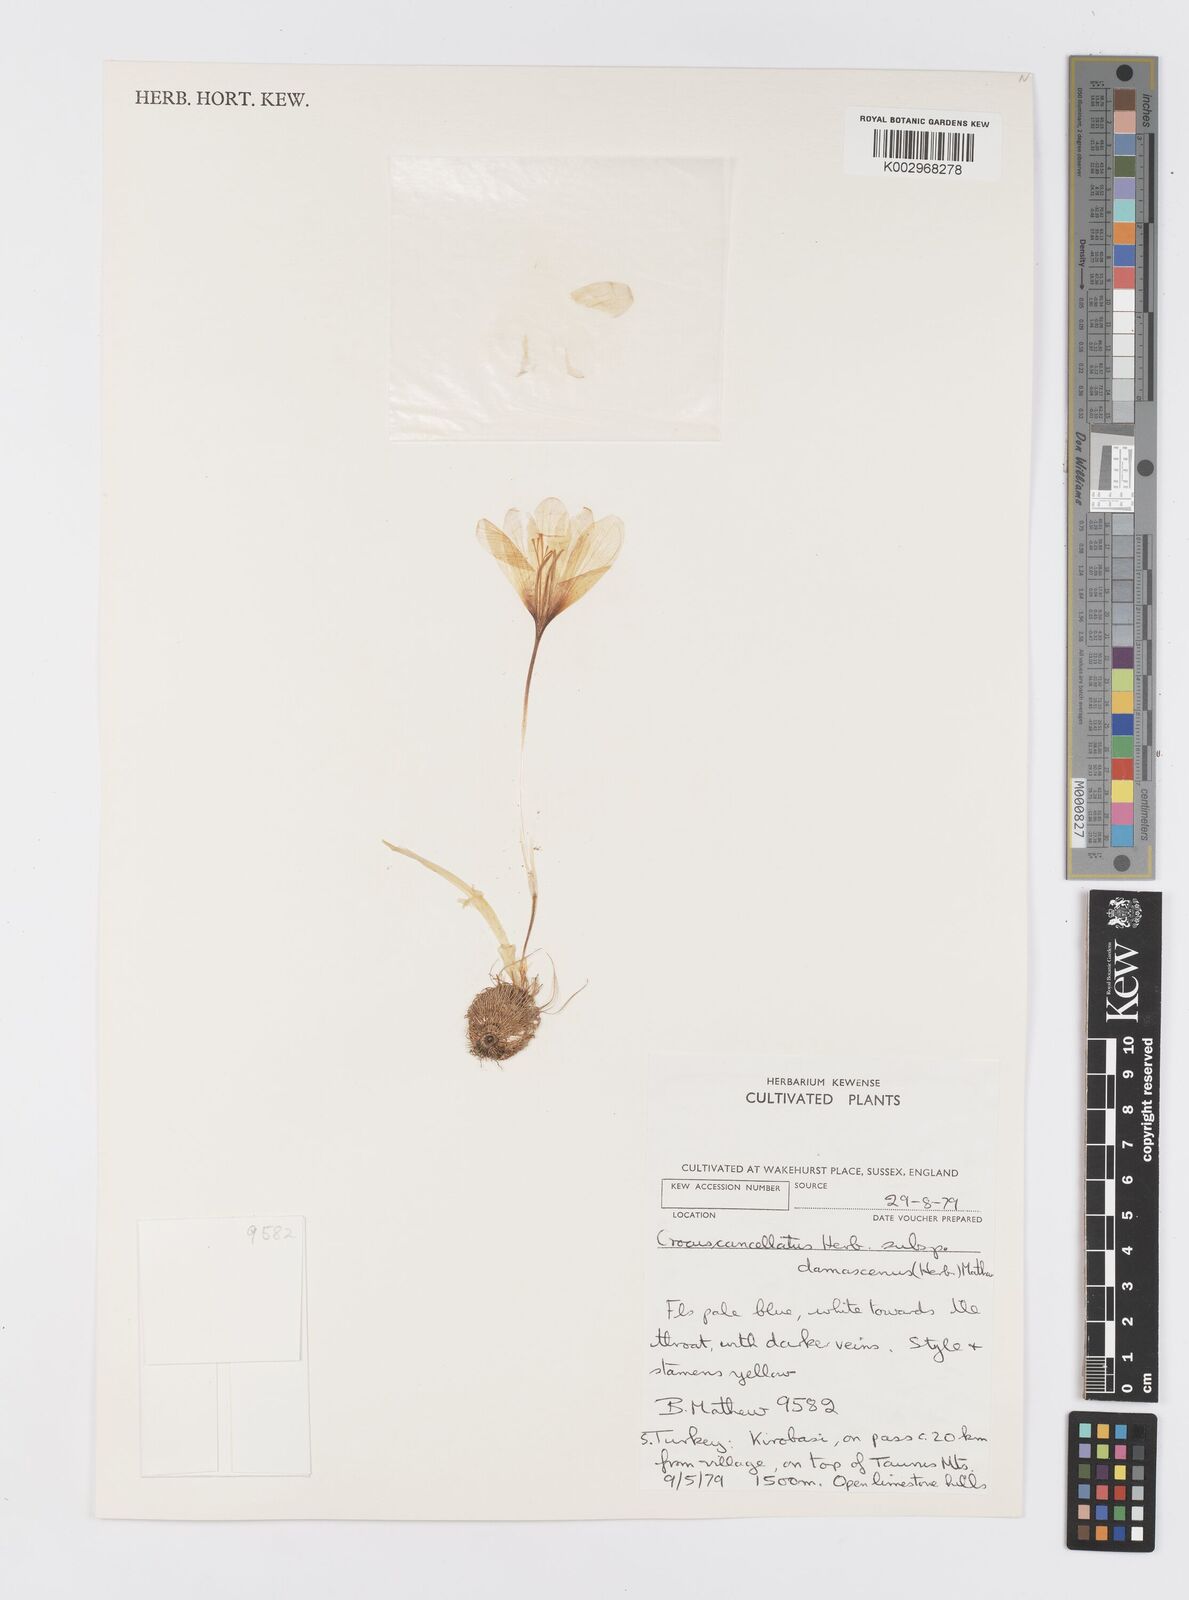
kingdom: Plantae
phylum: Tracheophyta
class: Liliopsida
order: Asparagales
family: Iridaceae
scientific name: Iridaceae
